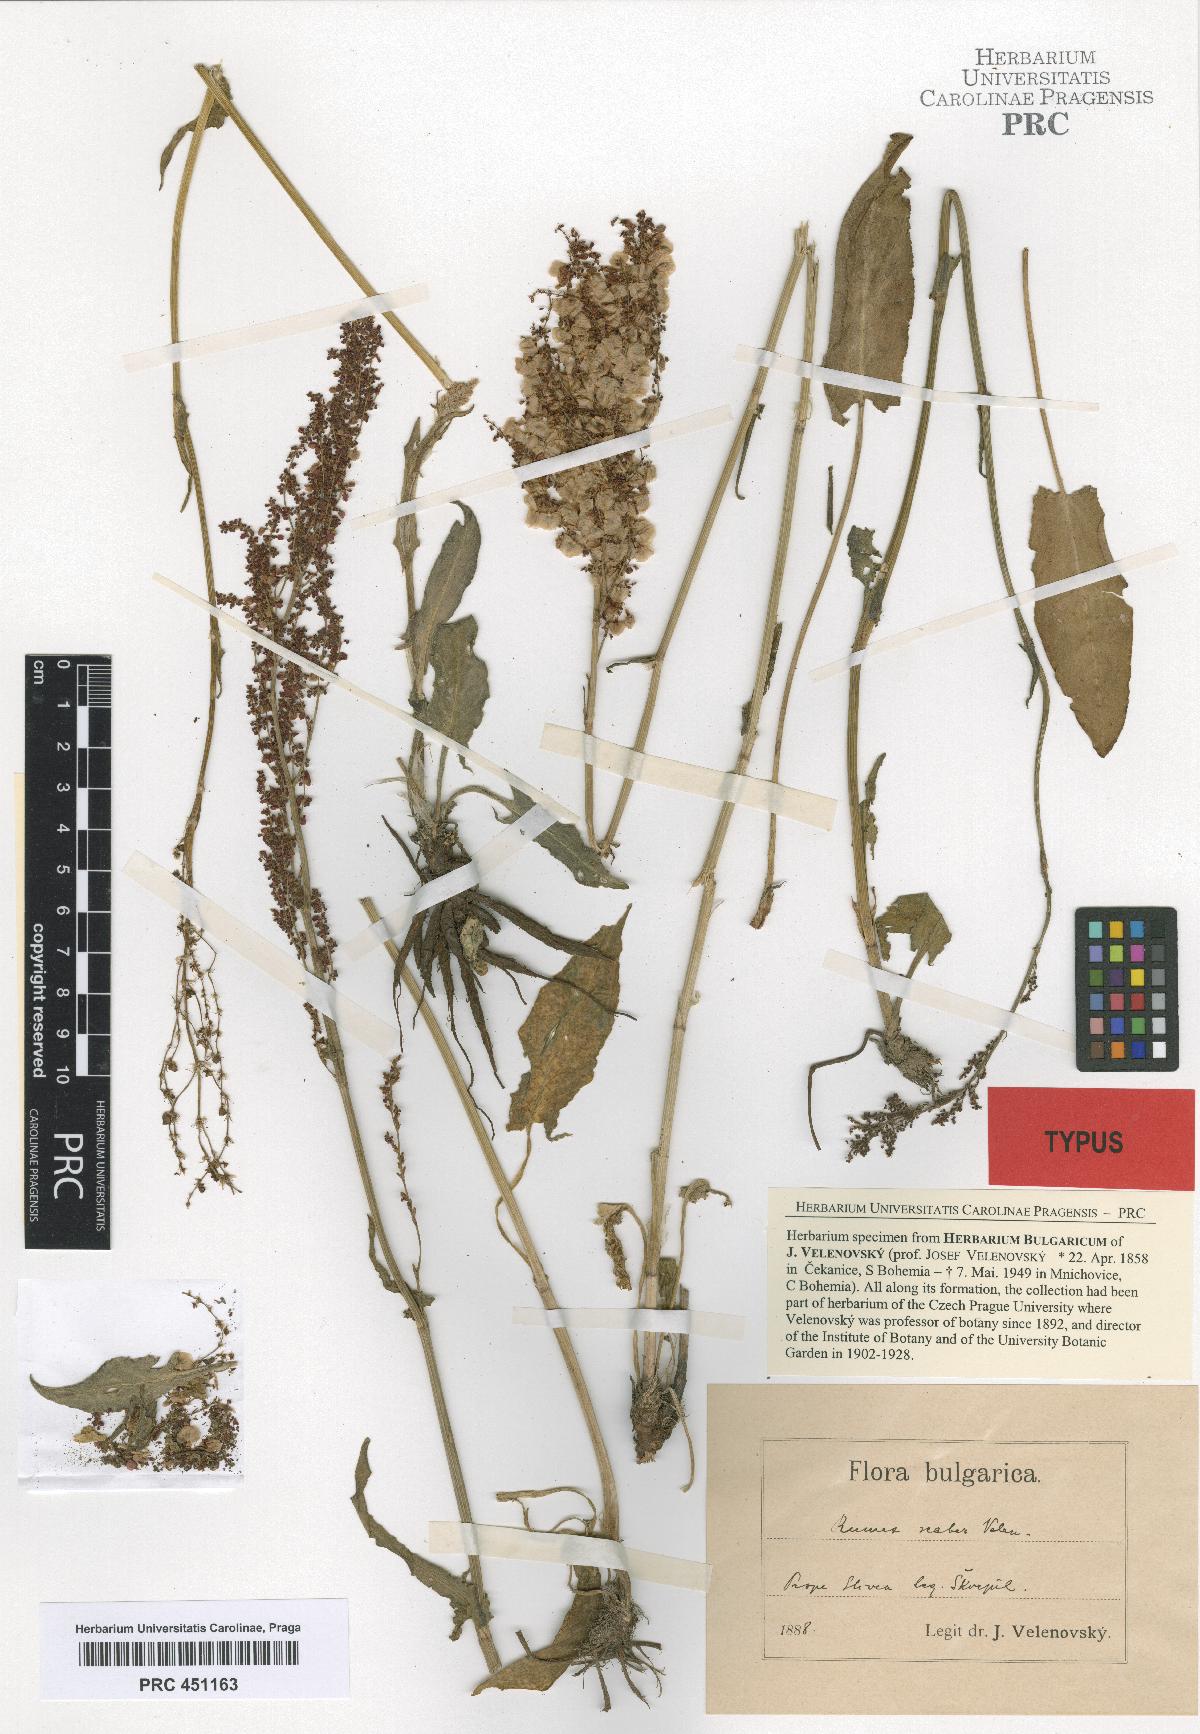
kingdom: Plantae
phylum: Tracheophyta
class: Magnoliopsida
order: Caryophyllales
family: Polygonaceae
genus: Rumex
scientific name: Rumex acetosa
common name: Garden sorrel
